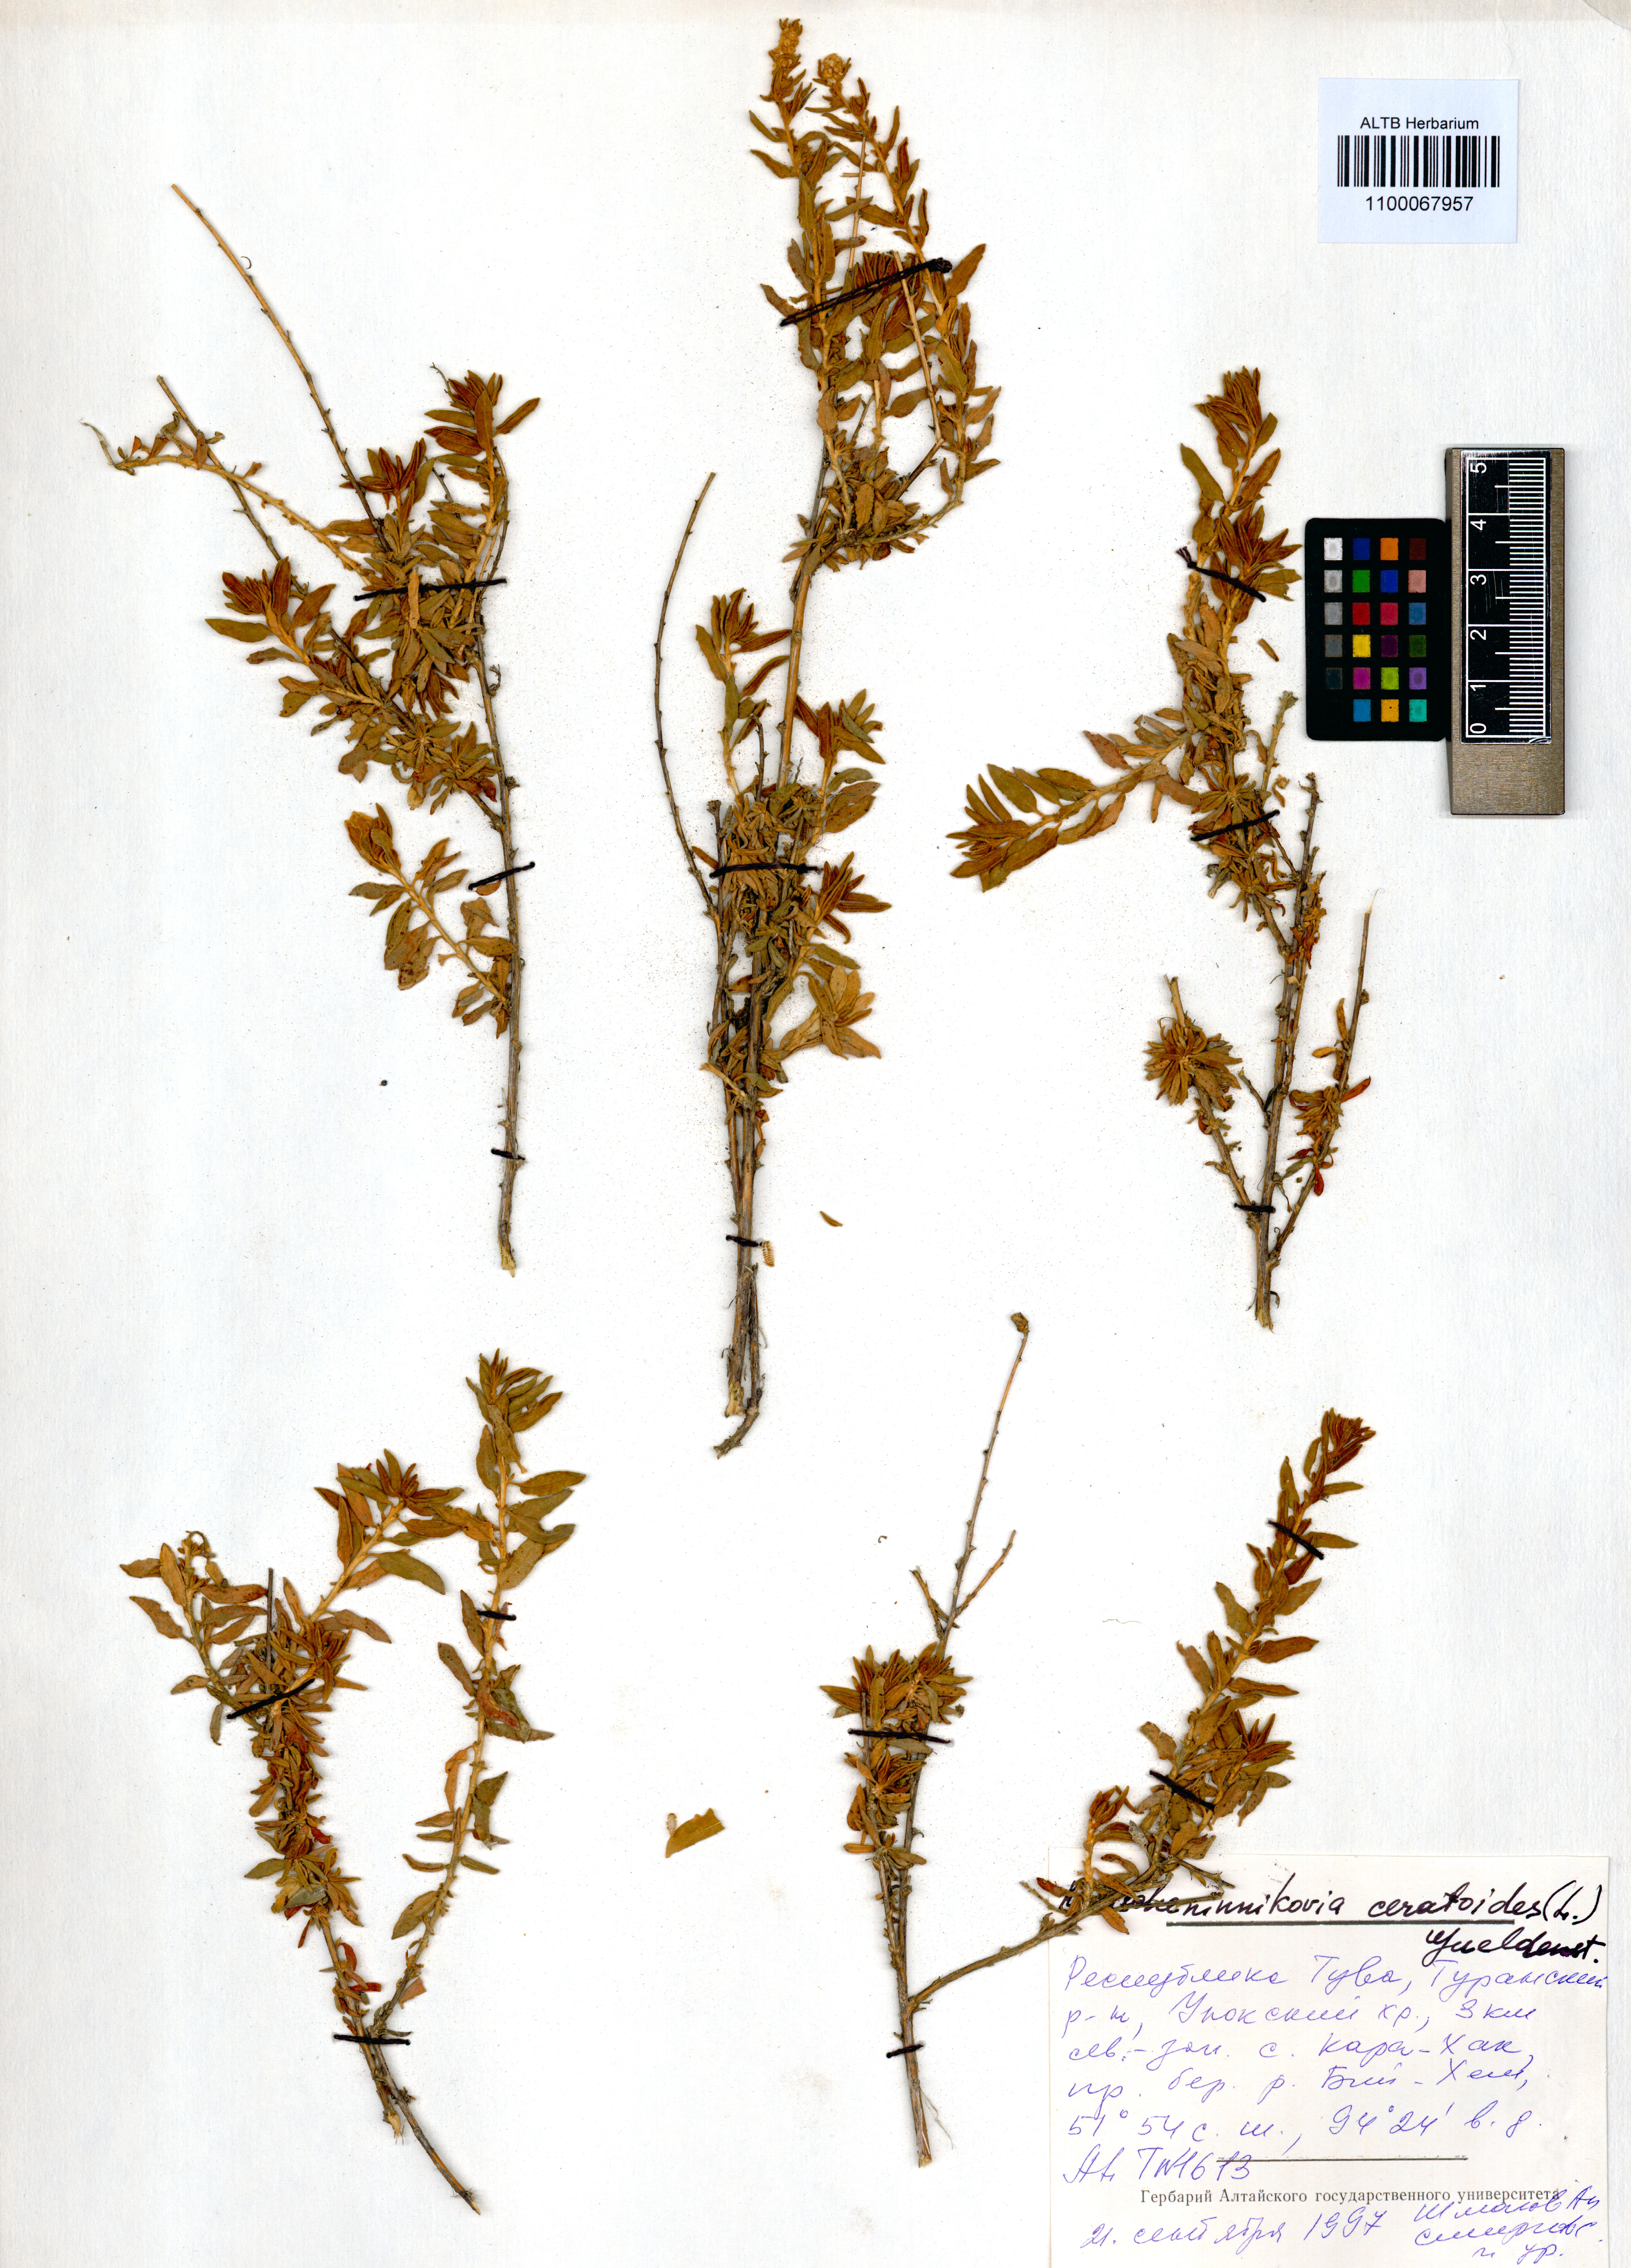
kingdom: Plantae
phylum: Tracheophyta
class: Magnoliopsida
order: Caryophyllales
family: Amaranthaceae
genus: Krascheninnikovia
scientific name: Krascheninnikovia ceratoides
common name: Pamirian winterfat
